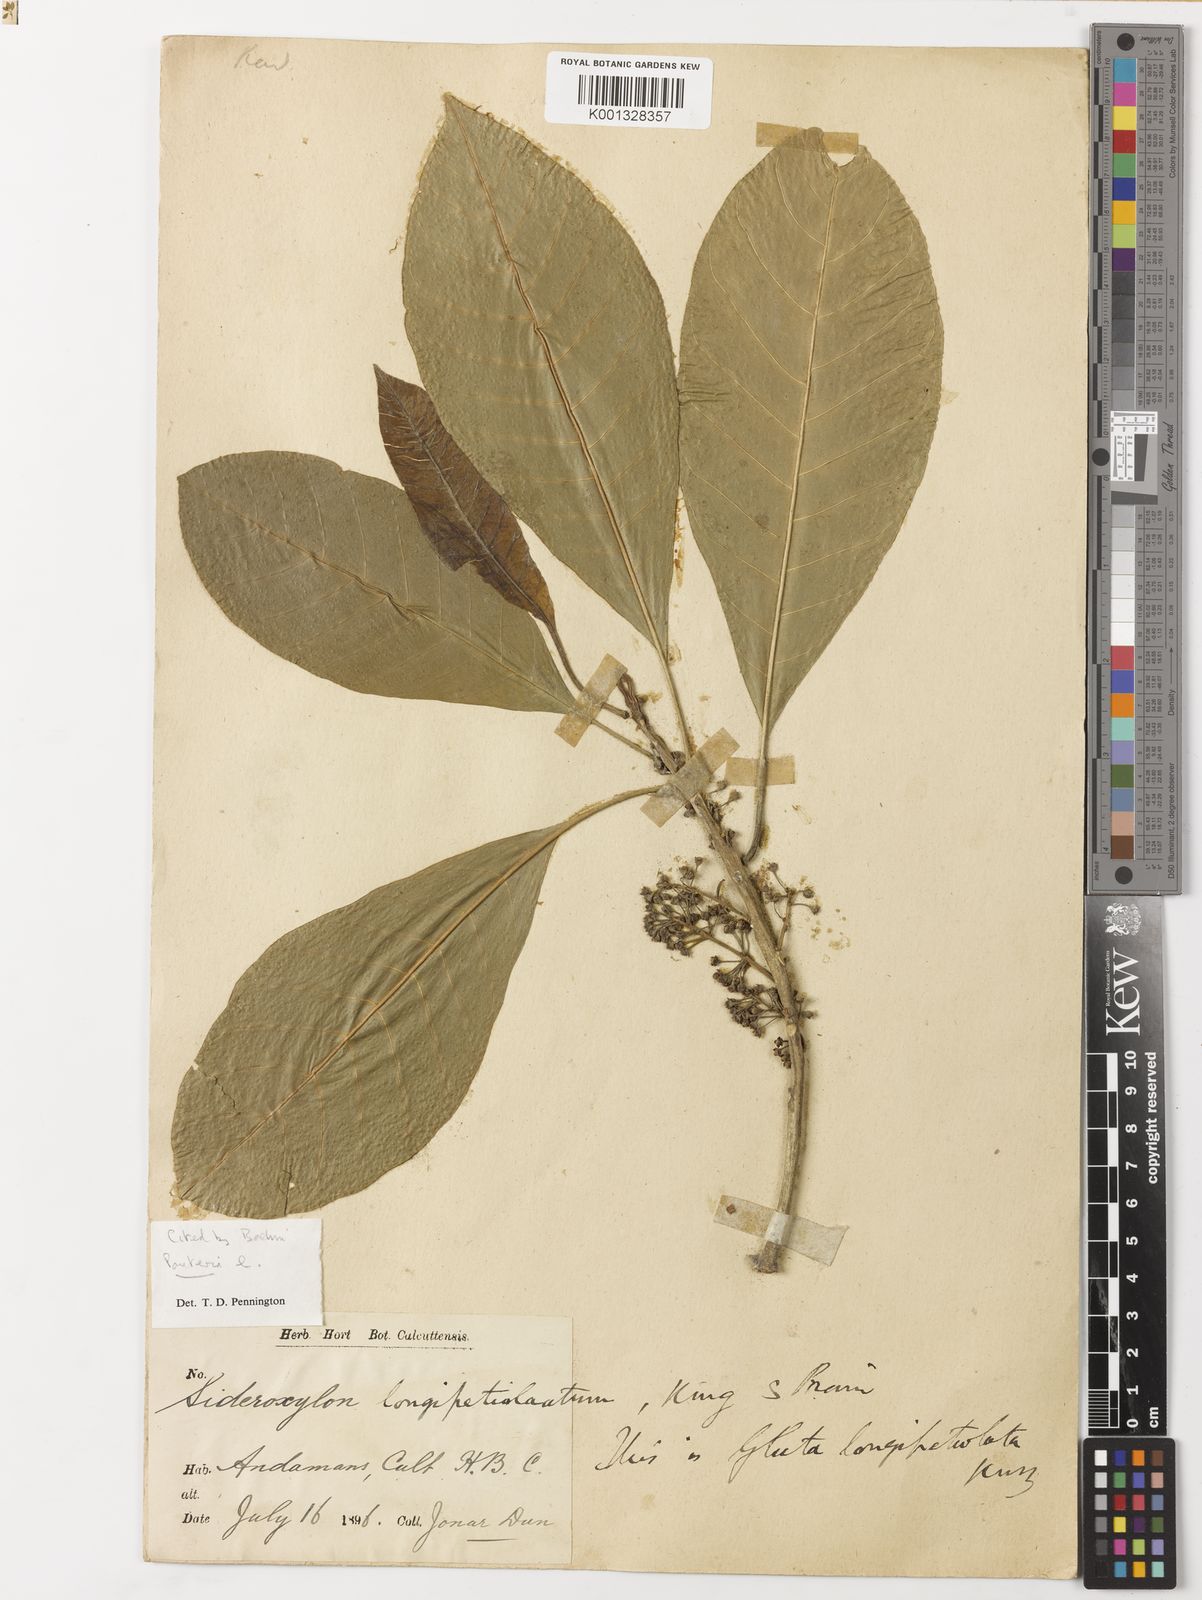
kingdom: Plantae
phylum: Tracheophyta
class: Magnoliopsida
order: Ericales
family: Sapotaceae
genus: Planchonella
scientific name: Planchonella longipetiolata
